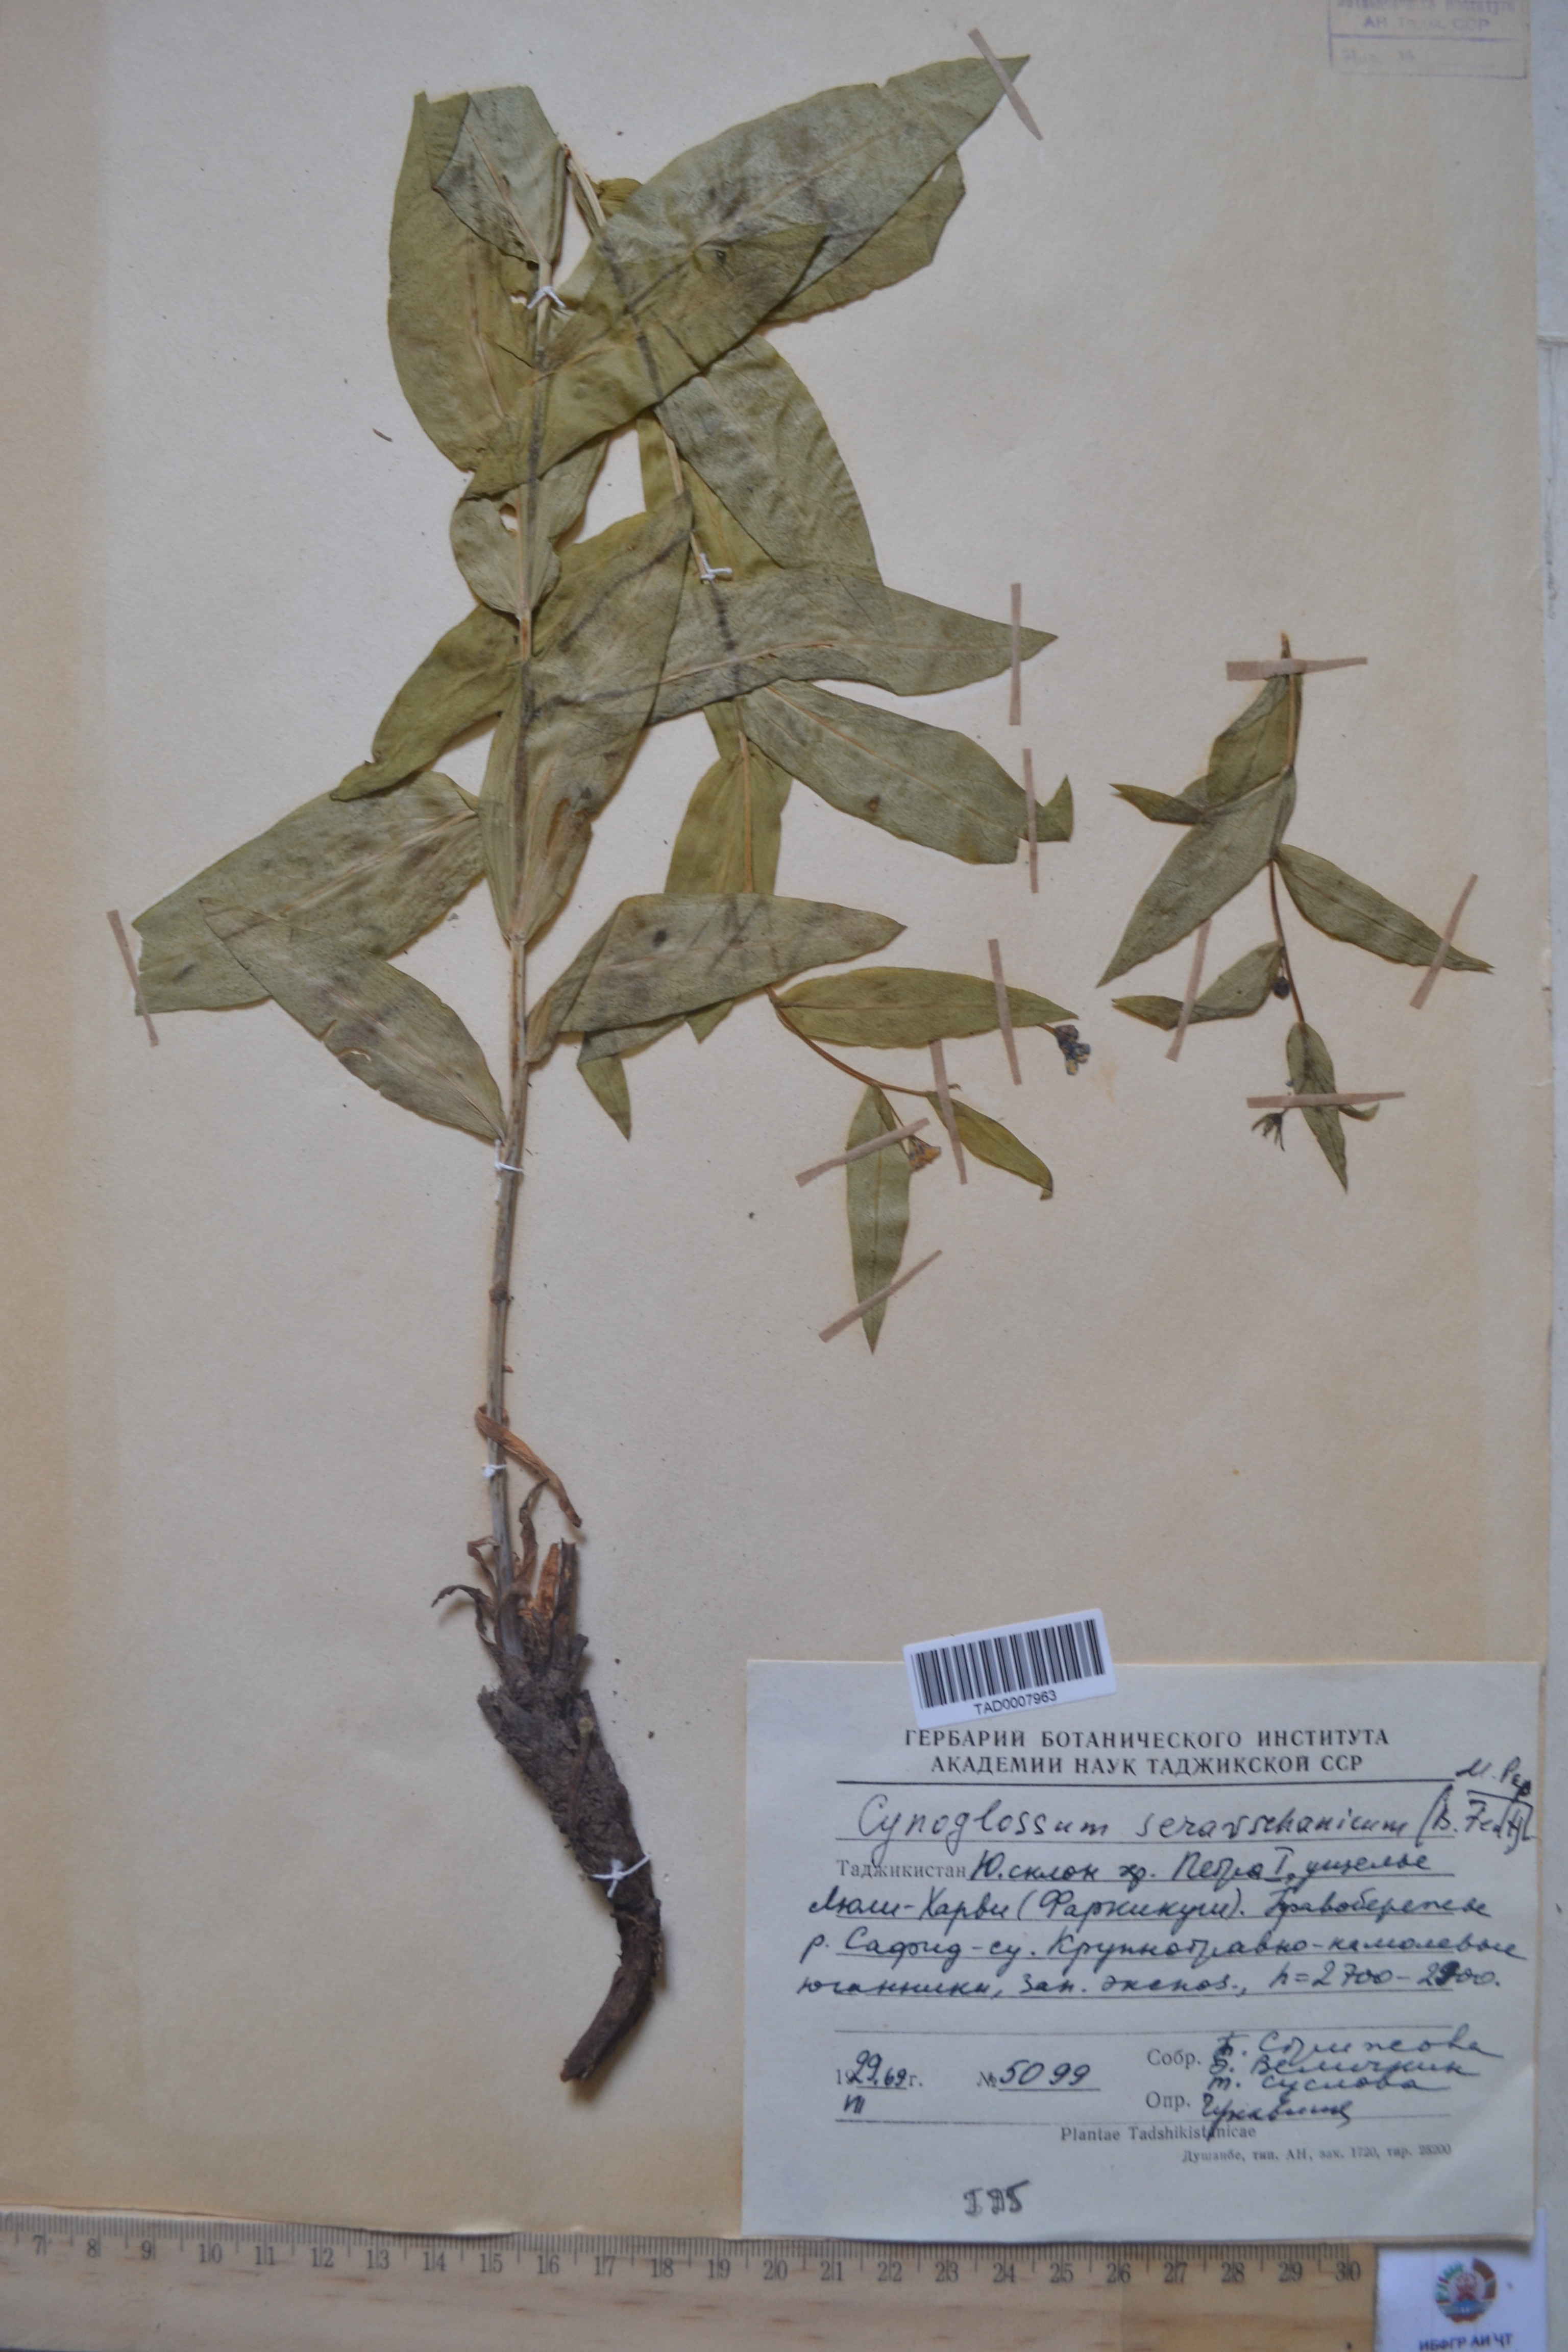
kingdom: Plantae
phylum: Tracheophyta
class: Magnoliopsida
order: Boraginales
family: Boraginaceae
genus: Cynoglossum
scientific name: Cynoglossum
